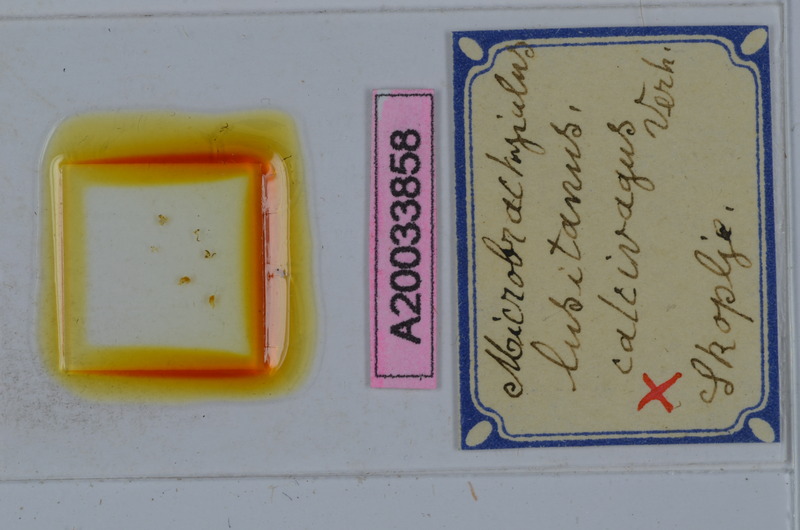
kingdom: Animalia
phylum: Arthropoda
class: Diplopoda
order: Julida
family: Julidae
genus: Brachyiulus
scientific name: Brachyiulus lusitanus
